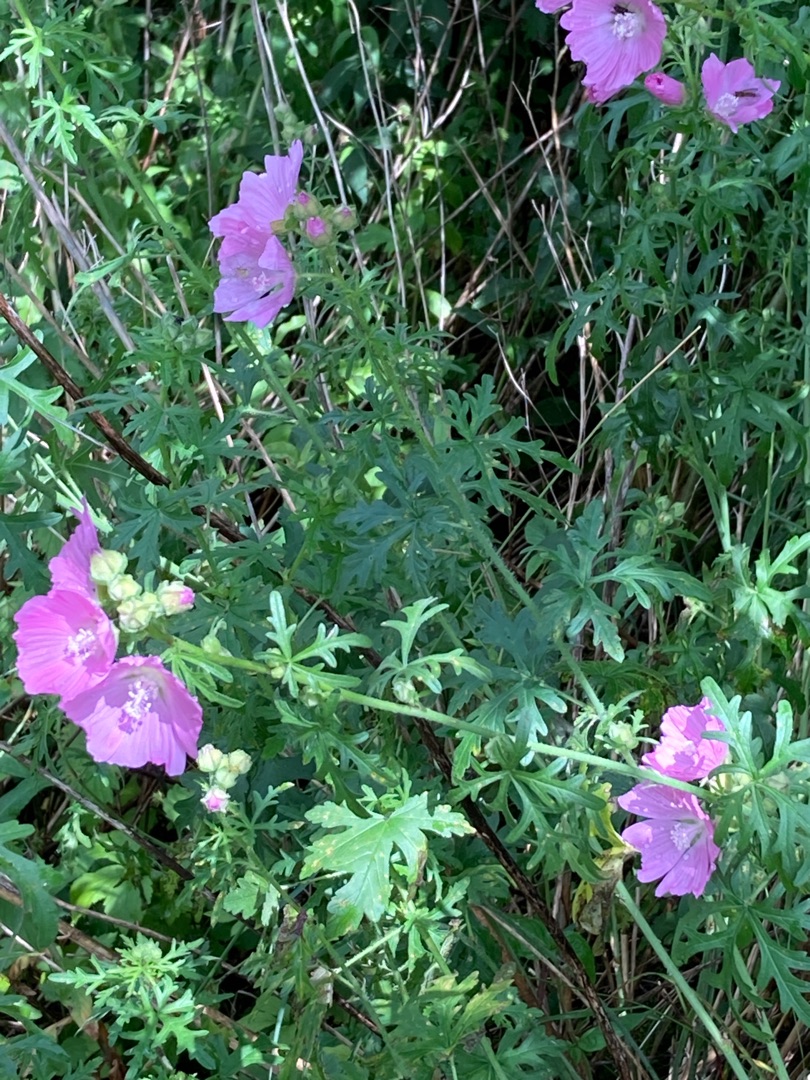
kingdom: Plantae
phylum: Tracheophyta
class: Magnoliopsida
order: Malvales
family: Malvaceae
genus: Malva
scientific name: Malva moschata
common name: Moskus-katost
